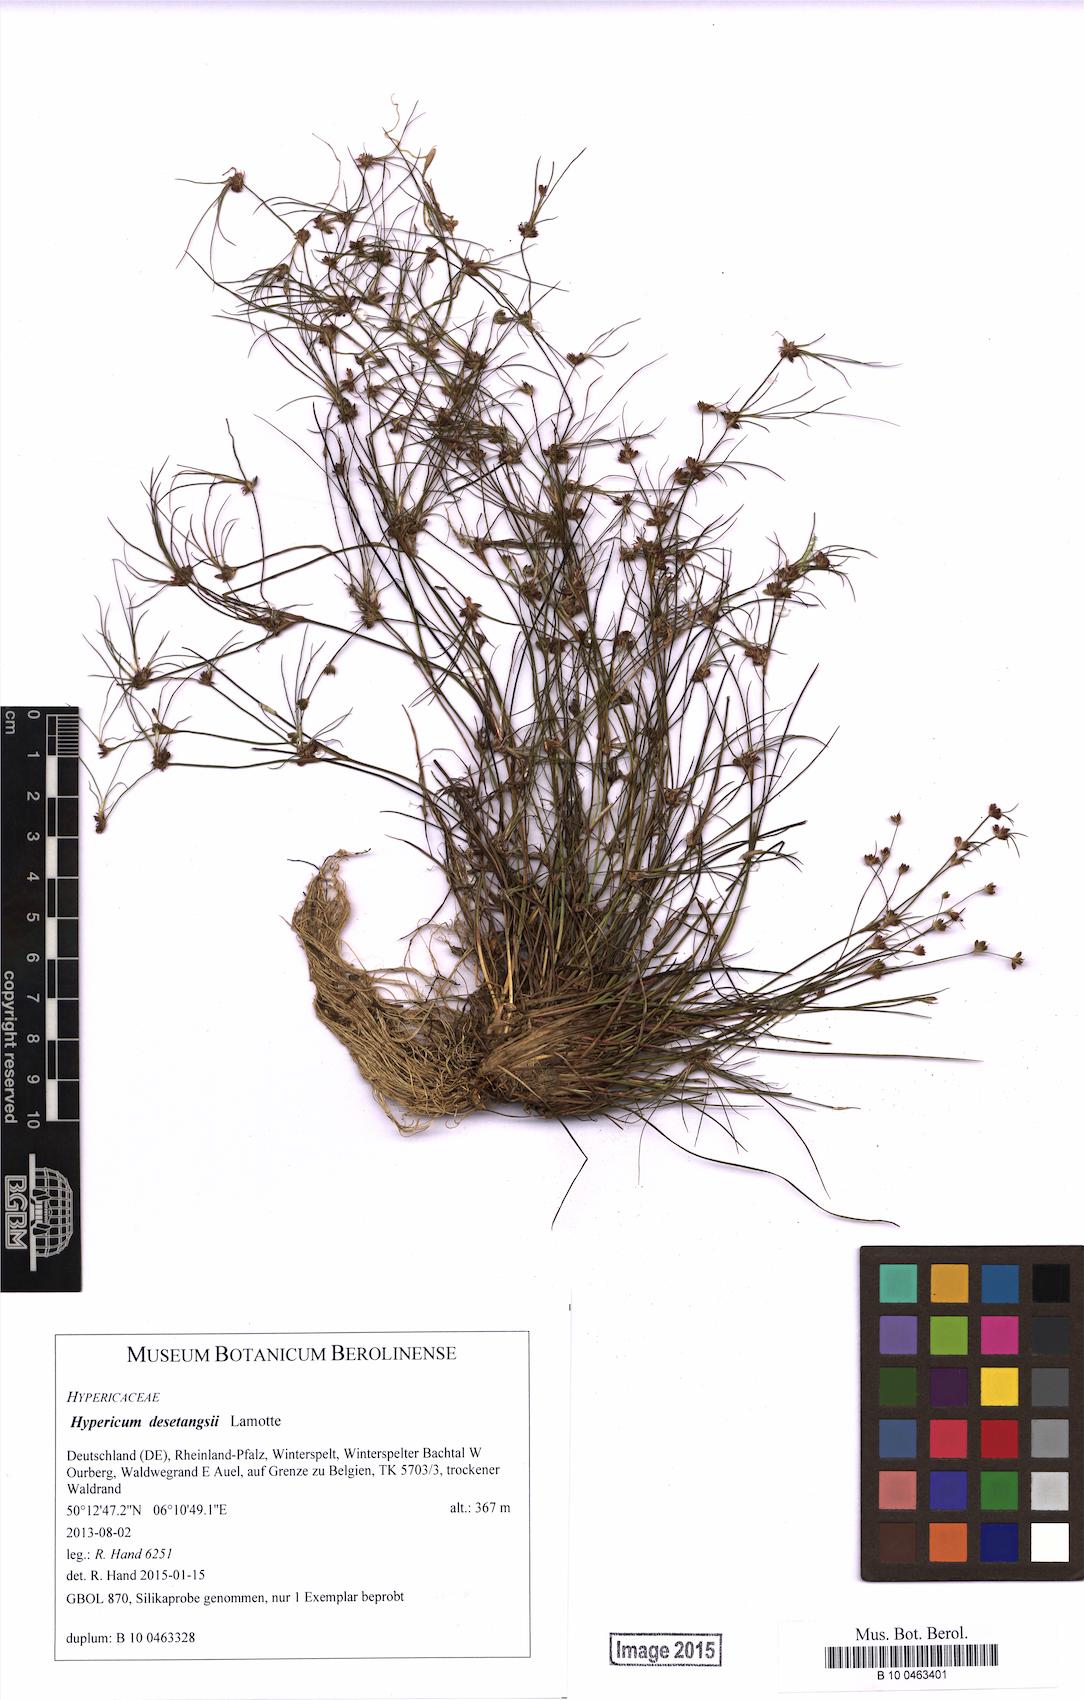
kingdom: Plantae
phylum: Tracheophyta
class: Liliopsida
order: Poales
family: Juncaceae
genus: Juncus
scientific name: Juncus bulbosus
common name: Bulbous rush
